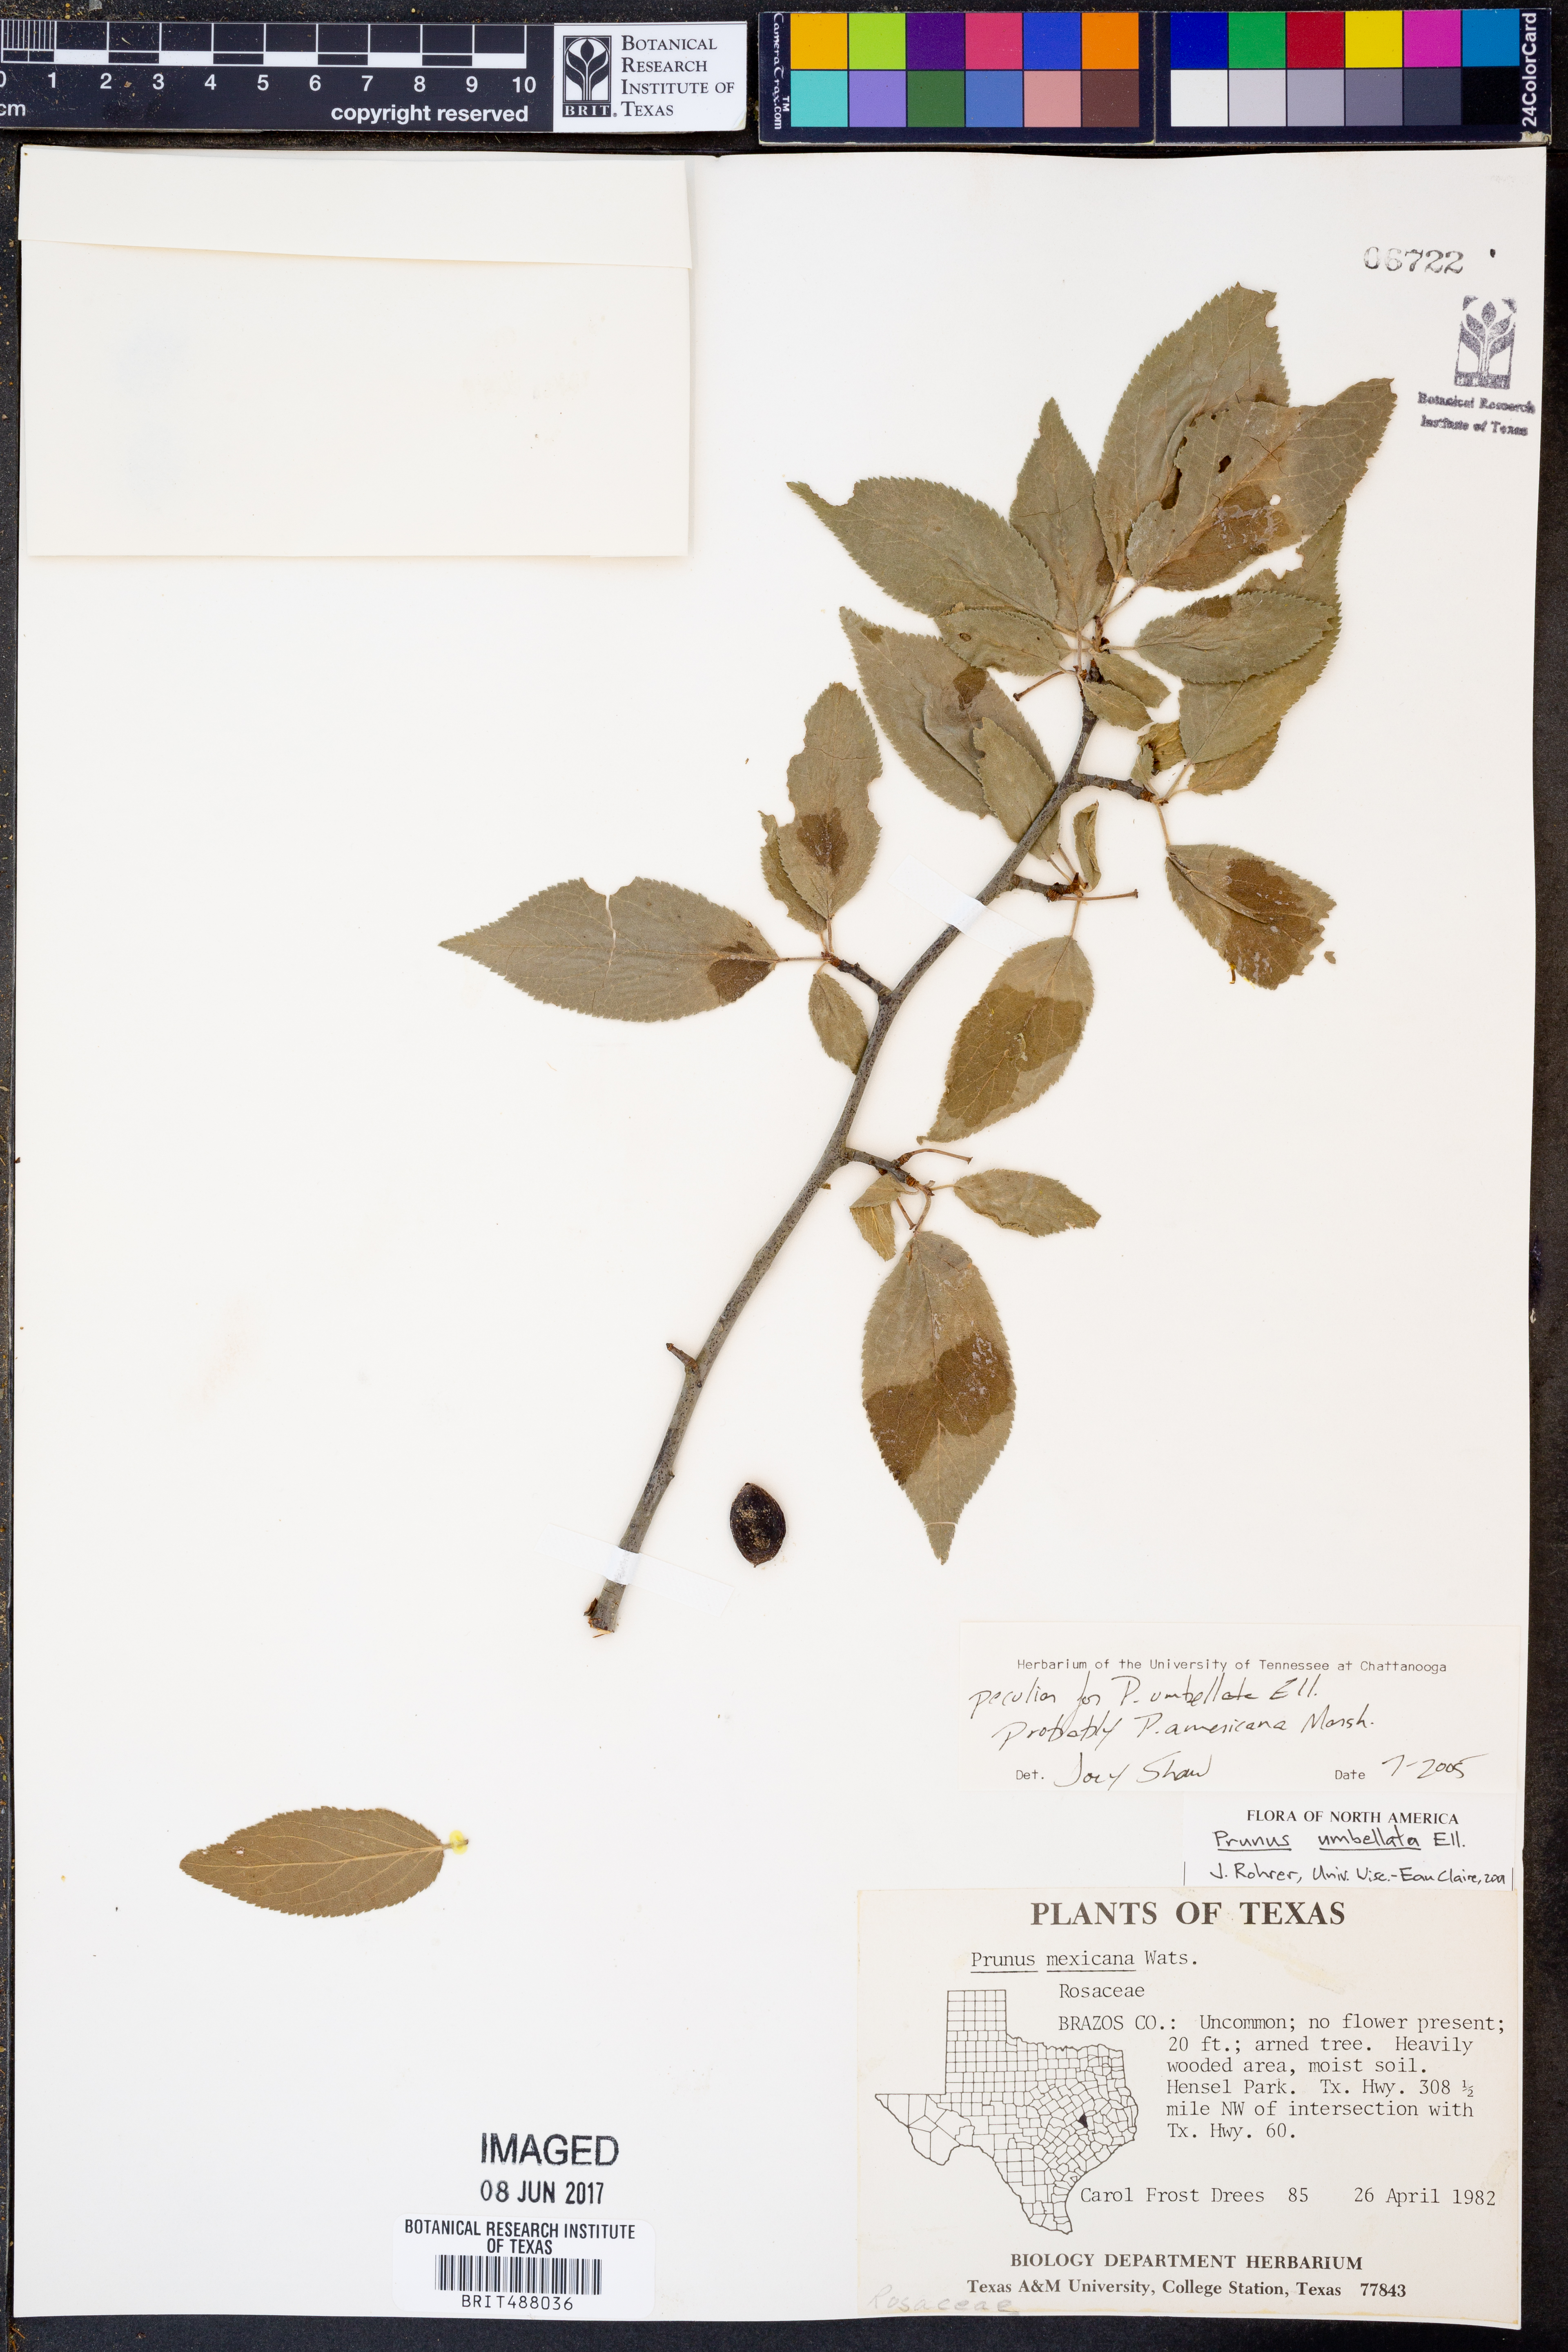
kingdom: Plantae
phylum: Tracheophyta
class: Magnoliopsida
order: Rosales
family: Rosaceae
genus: Prunus
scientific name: Prunus americana
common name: American plum
